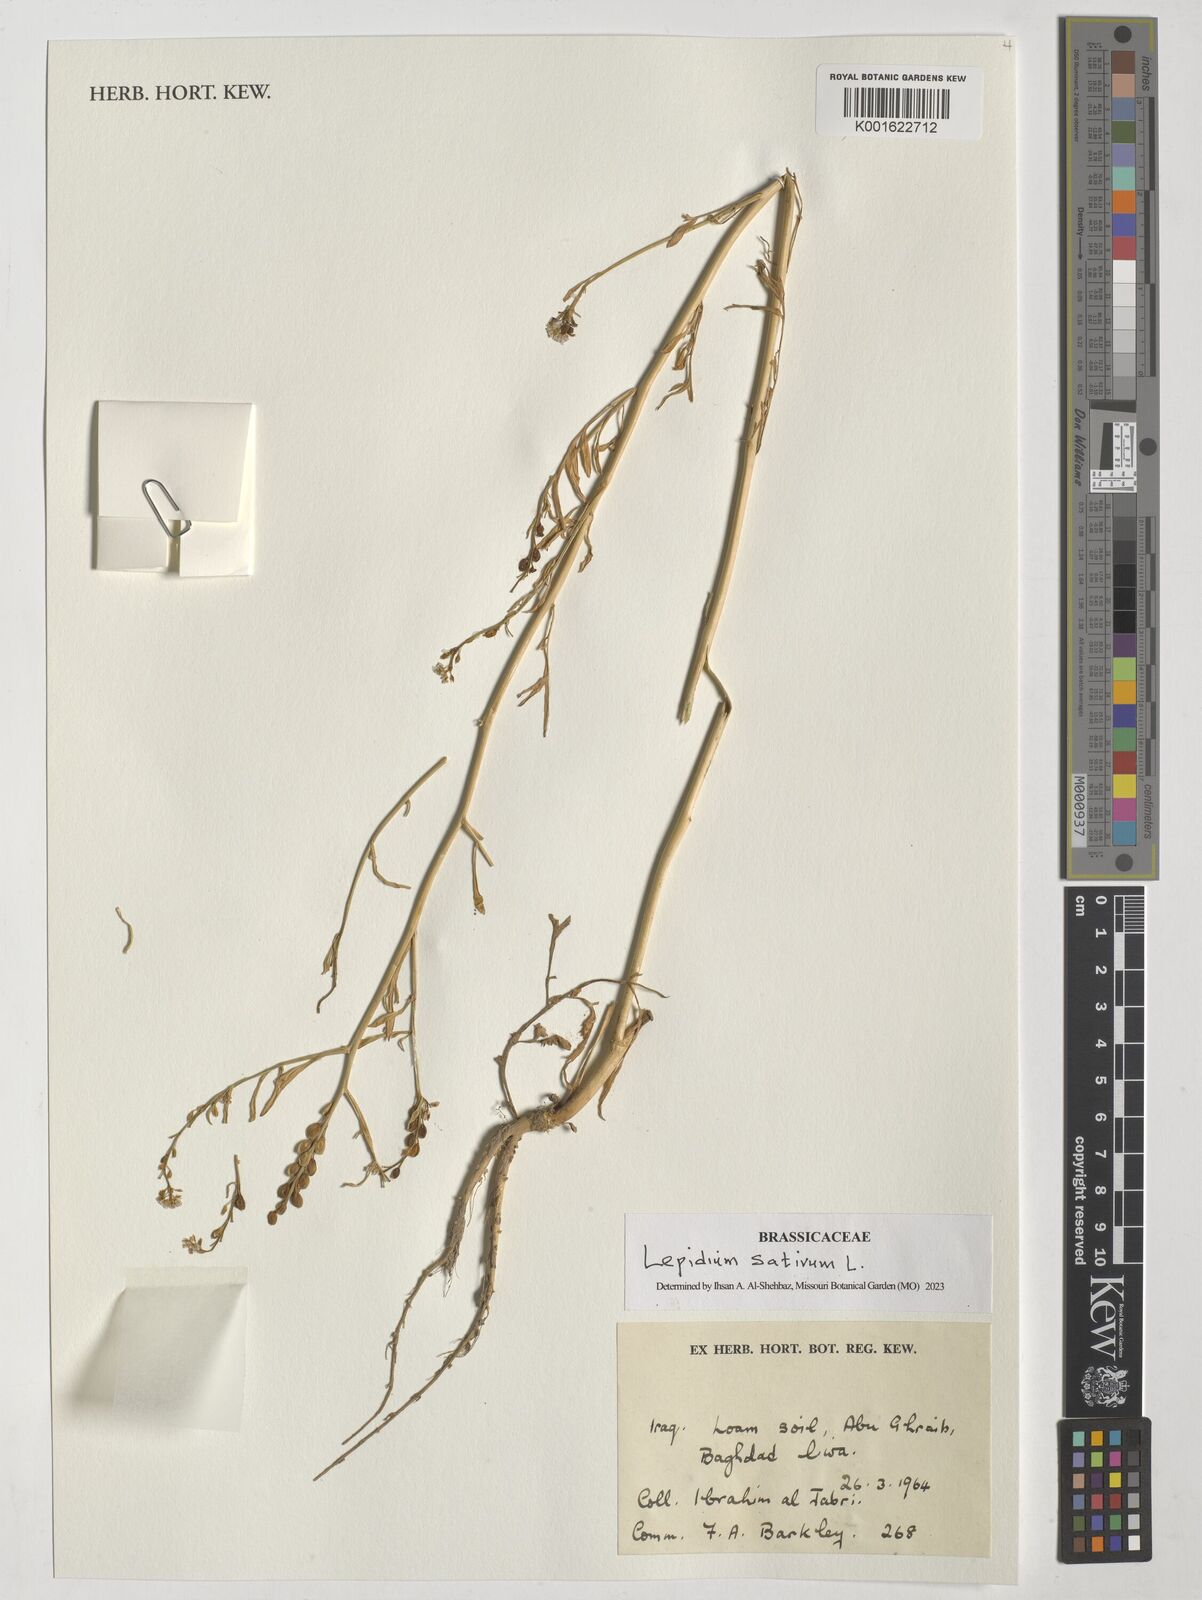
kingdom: Plantae
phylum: Tracheophyta
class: Magnoliopsida
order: Brassicales
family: Brassicaceae
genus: Lepidium
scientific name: Lepidium sativum
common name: Garden cress
